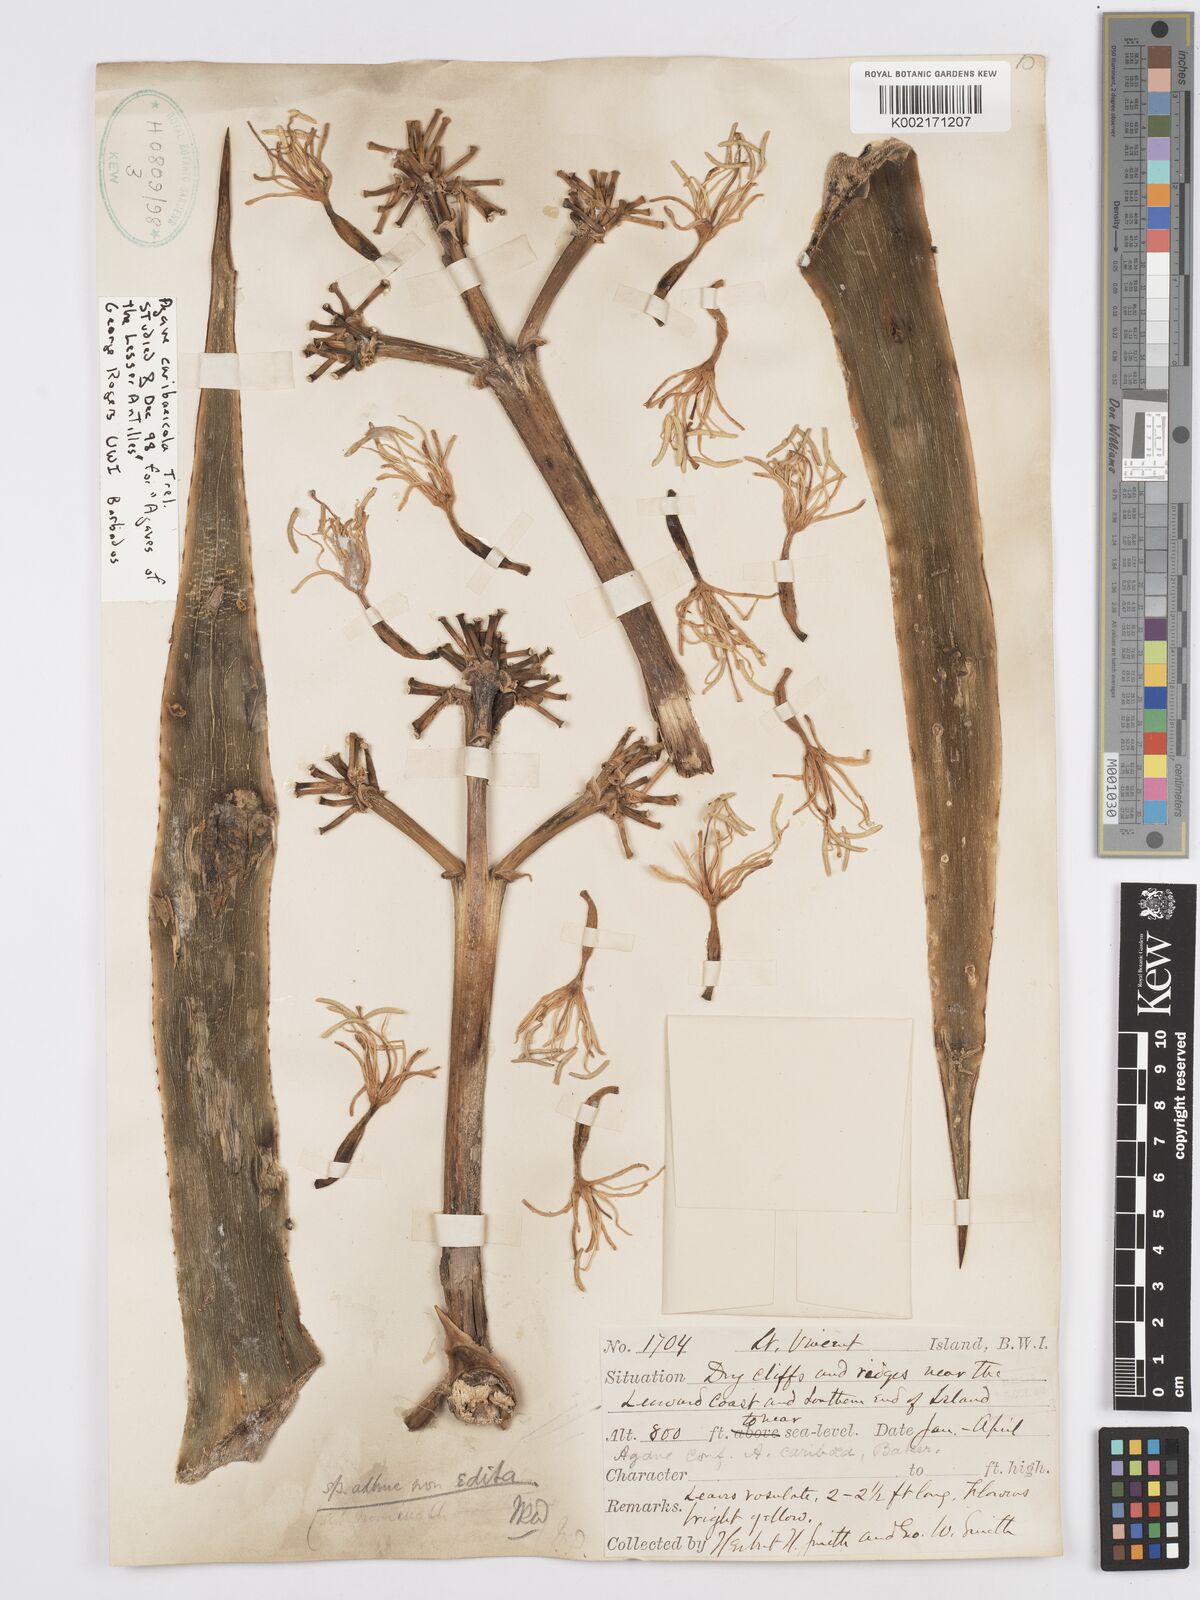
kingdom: Plantae
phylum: Tracheophyta
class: Liliopsida
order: Asparagales
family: Asparagaceae
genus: Agave
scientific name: Agave caribaeicola
